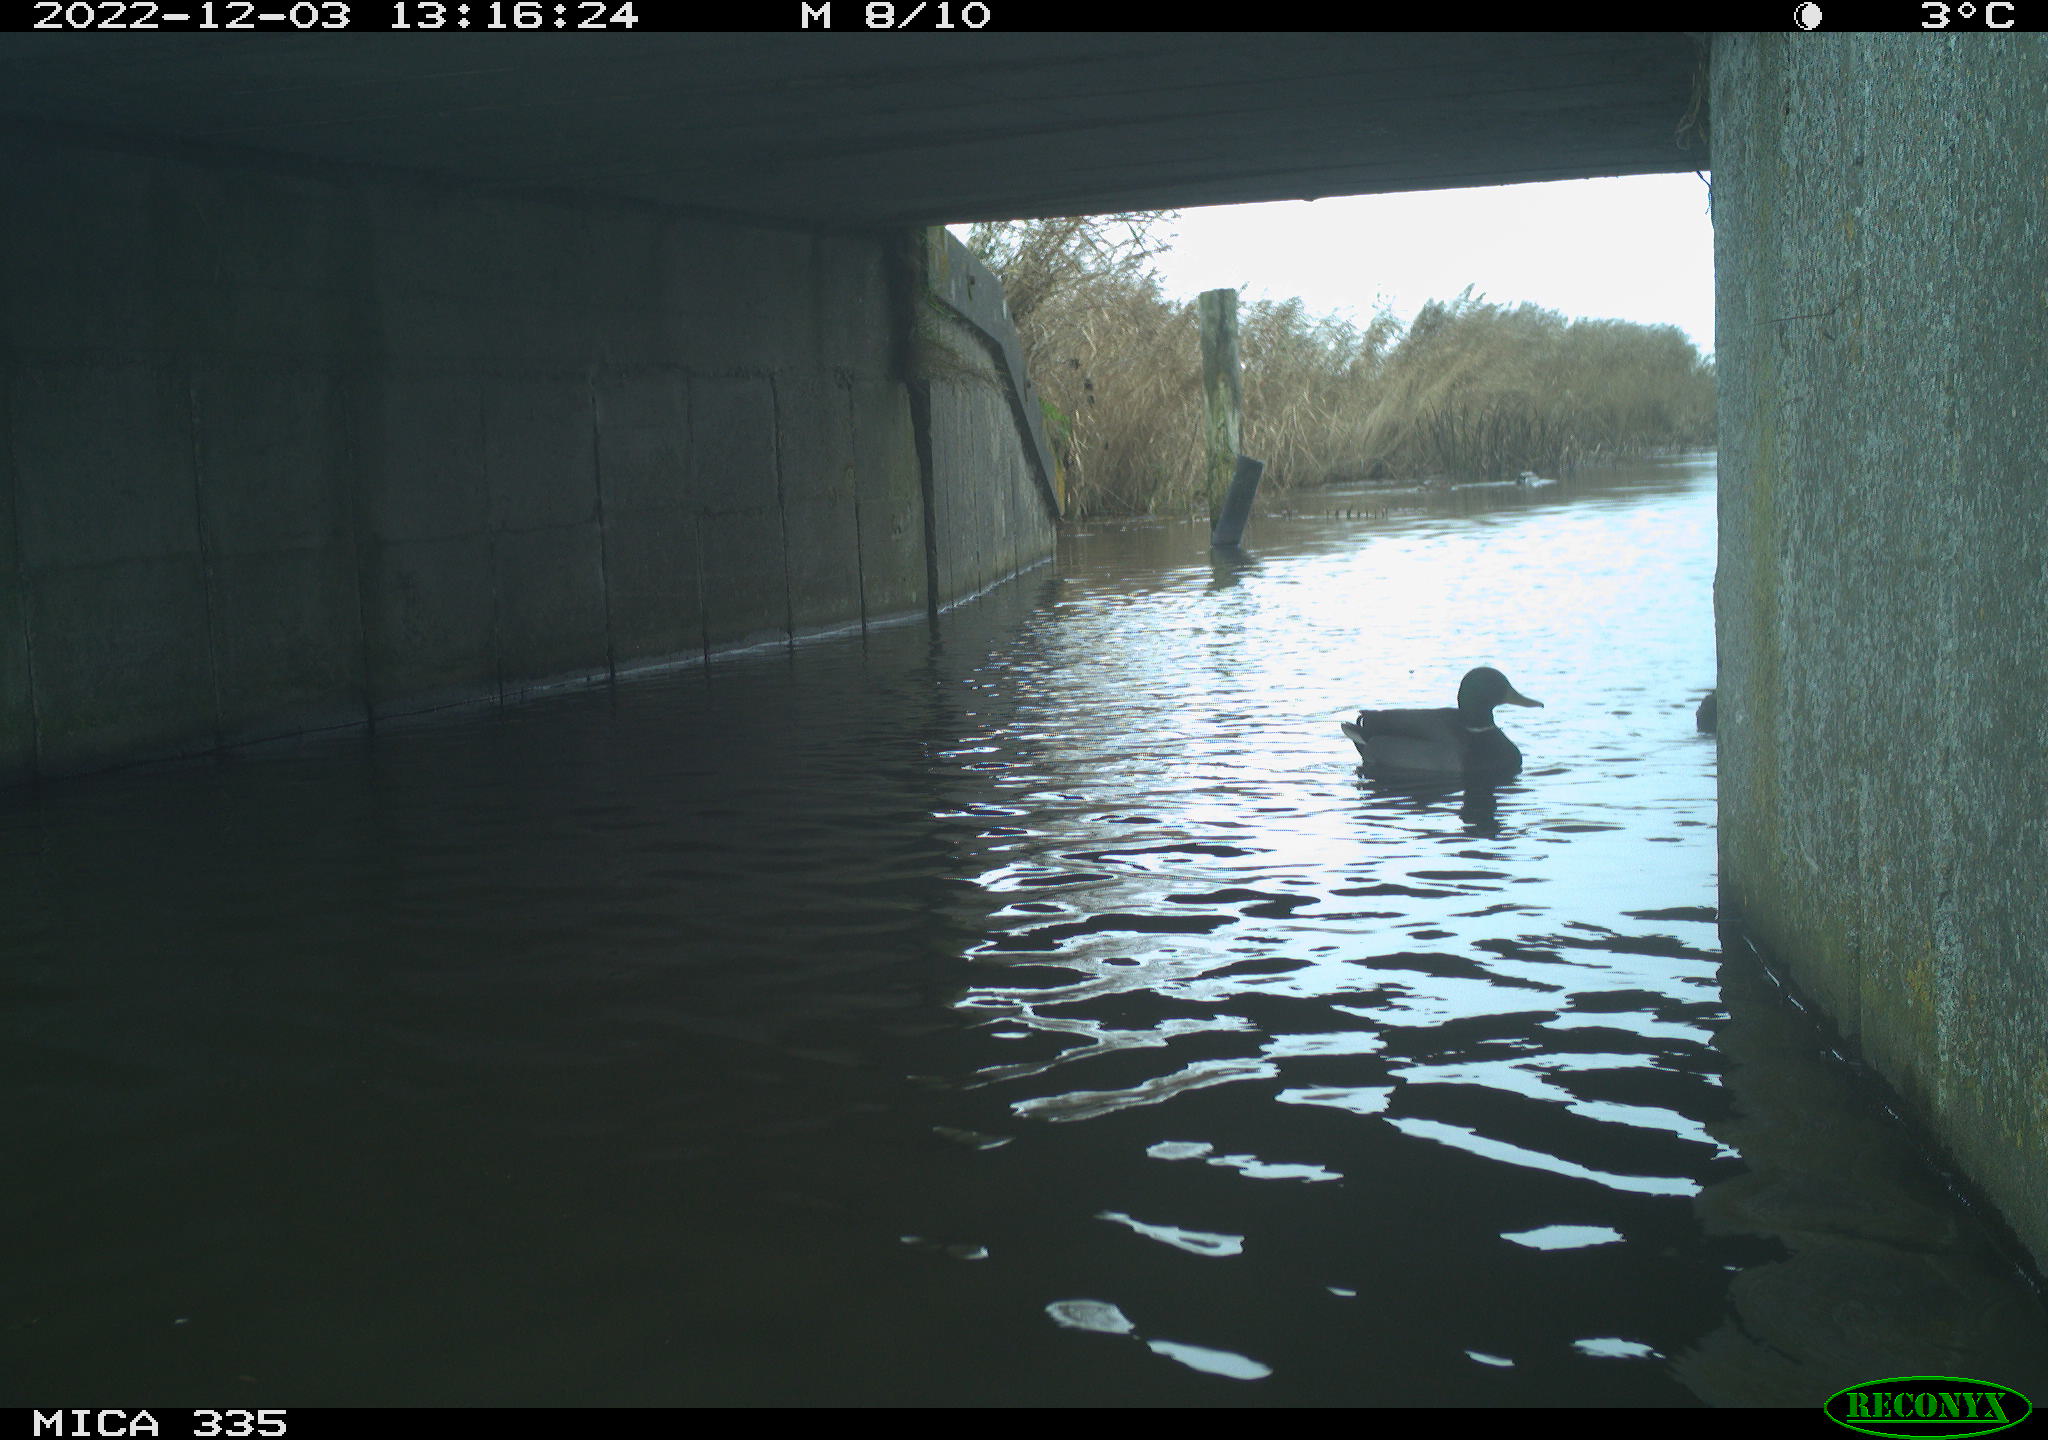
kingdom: Animalia
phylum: Chordata
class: Aves
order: Anseriformes
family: Anatidae
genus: Anas
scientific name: Anas
